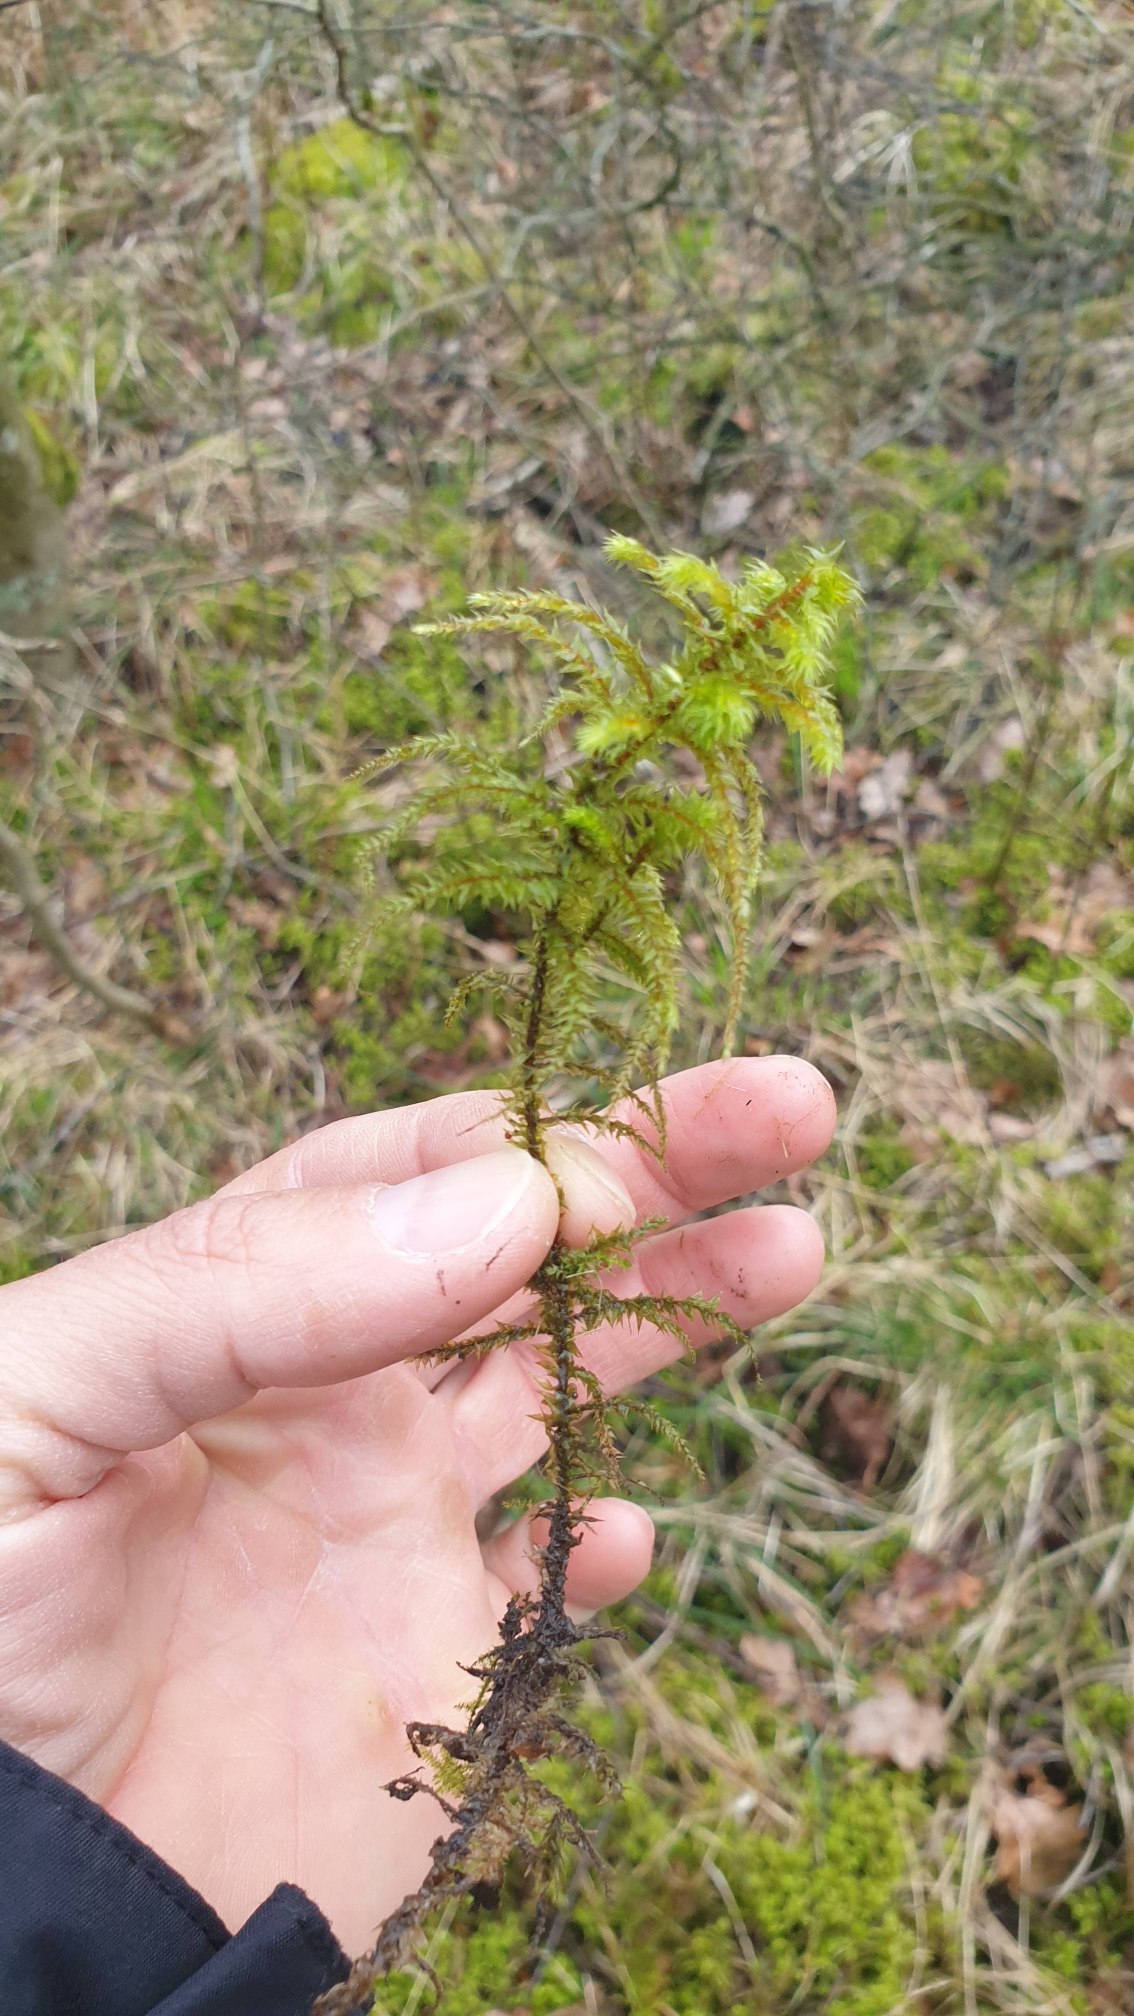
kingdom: Plantae
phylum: Bryophyta
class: Bryopsida
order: Hypnales
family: Hylocomiaceae
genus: Hylocomiadelphus
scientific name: Hylocomiadelphus triquetrus
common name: Stor kransemos
